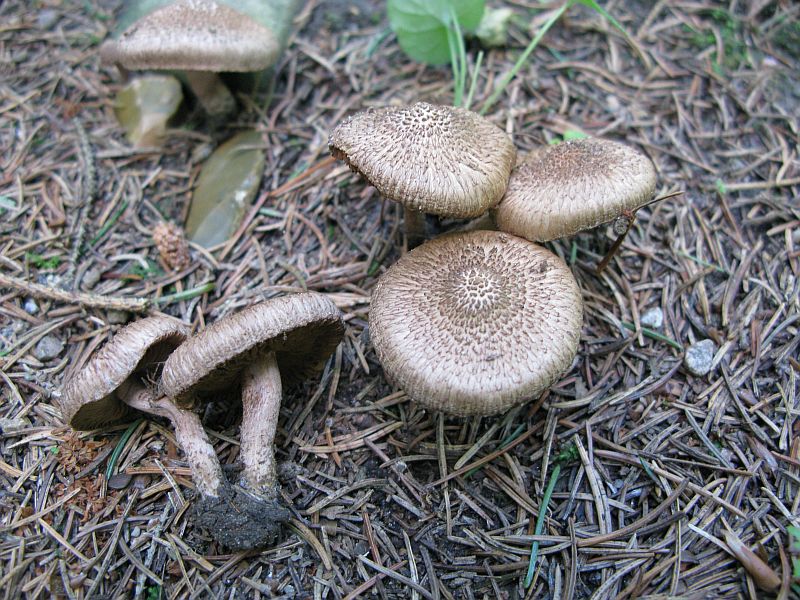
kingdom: Fungi
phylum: Basidiomycota
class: Agaricomycetes
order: Agaricales
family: Inocybaceae
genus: Inocybe
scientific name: Inocybe
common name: trævlhat
